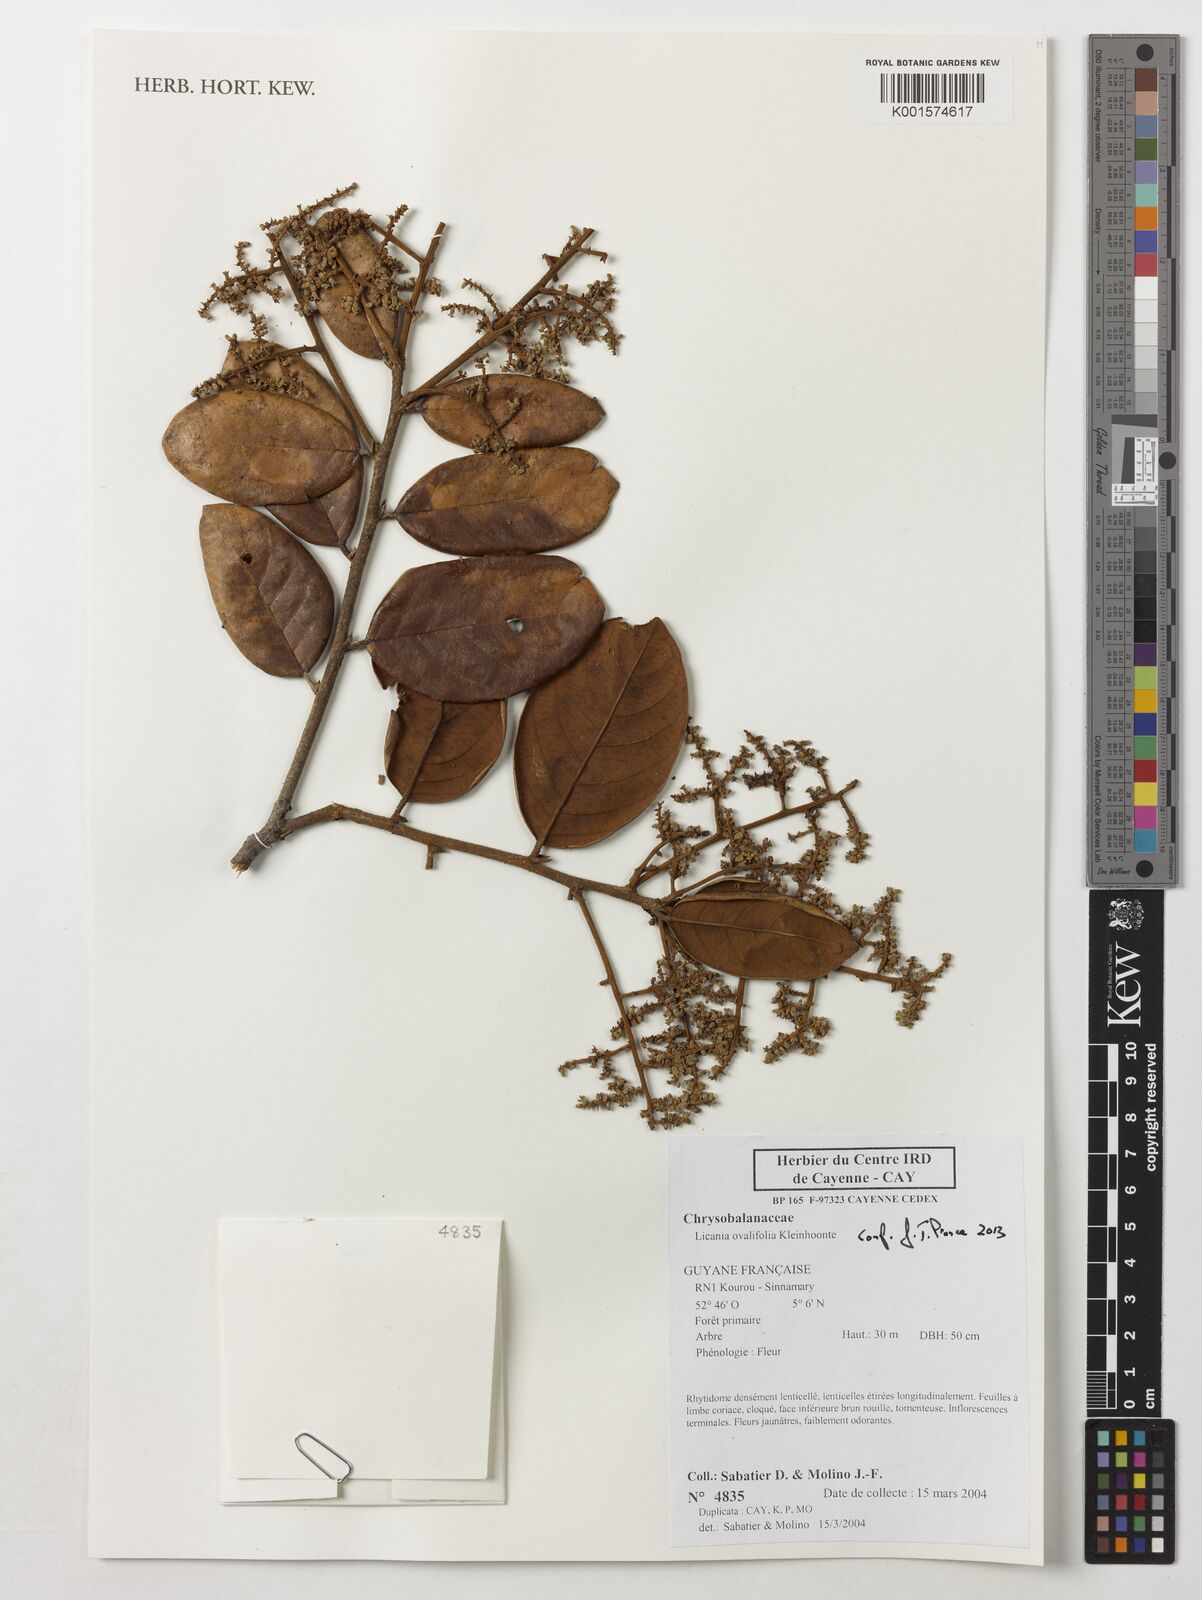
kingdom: Plantae
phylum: Tracheophyta
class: Magnoliopsida
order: Malpighiales
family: Chrysobalanaceae
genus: Licania
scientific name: Licania ovalifolia
